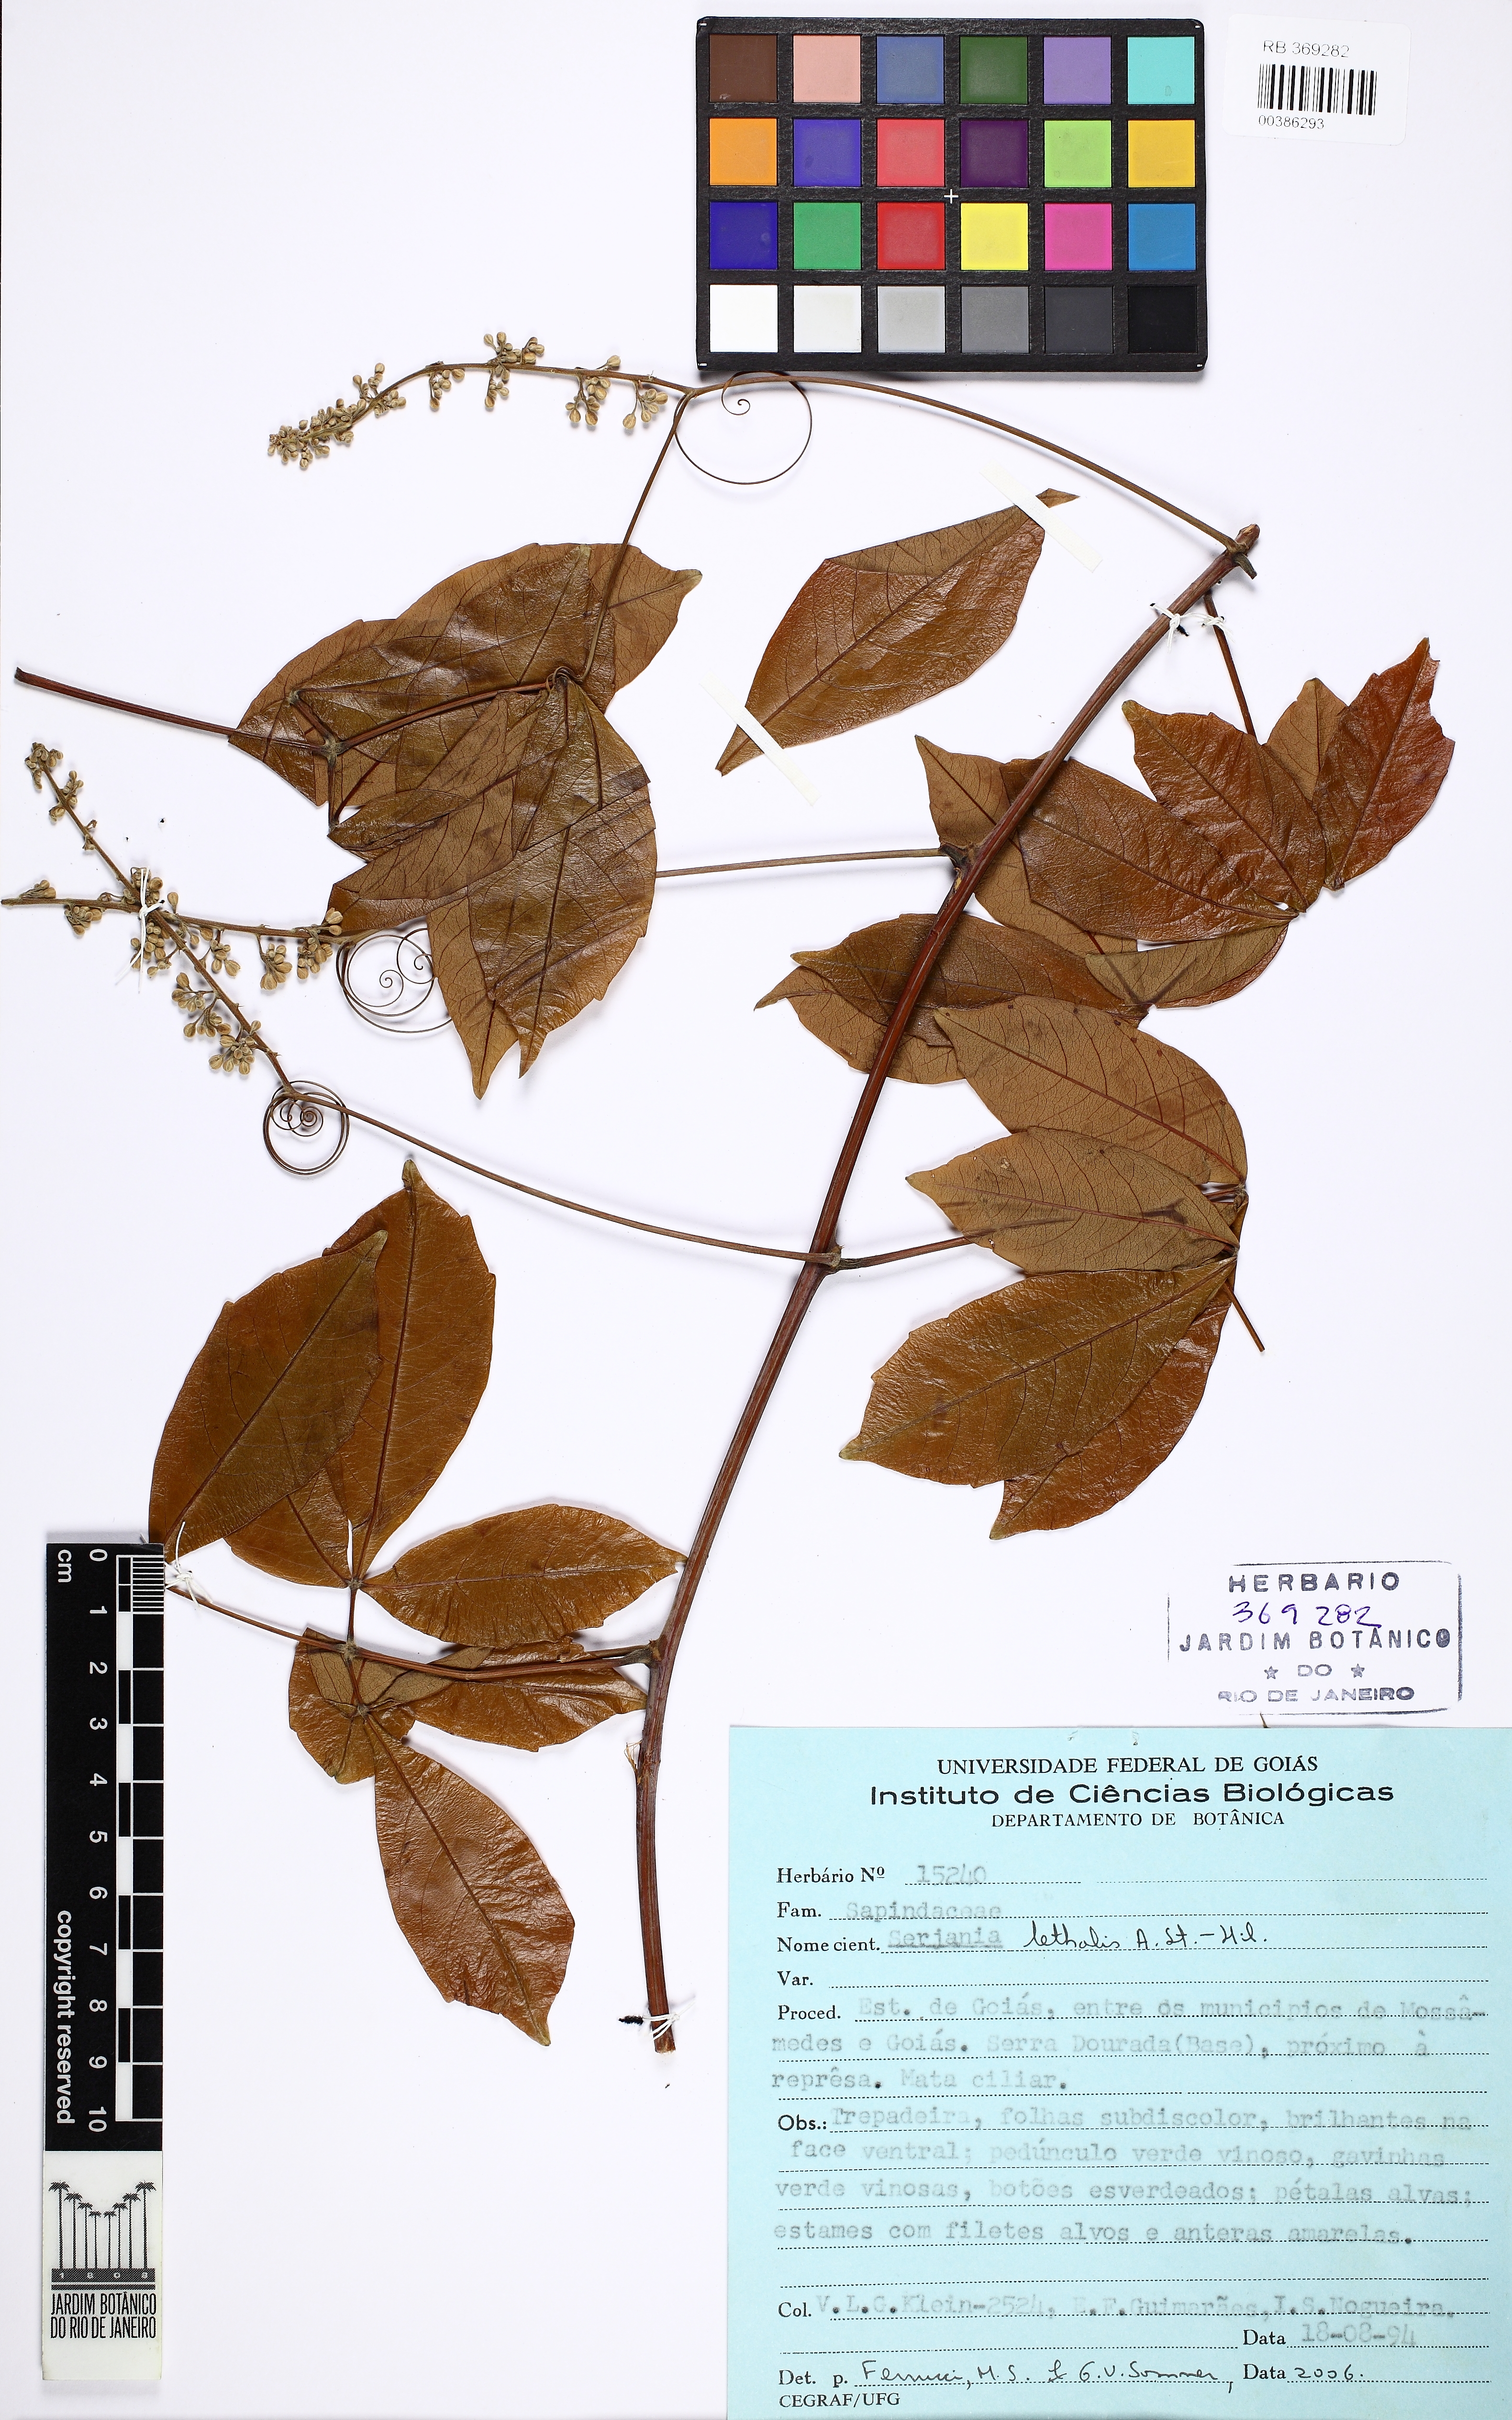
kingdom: Plantae
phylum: Tracheophyta
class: Magnoliopsida
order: Sapindales
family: Sapindaceae
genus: Serjania
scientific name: Serjania lethalis
